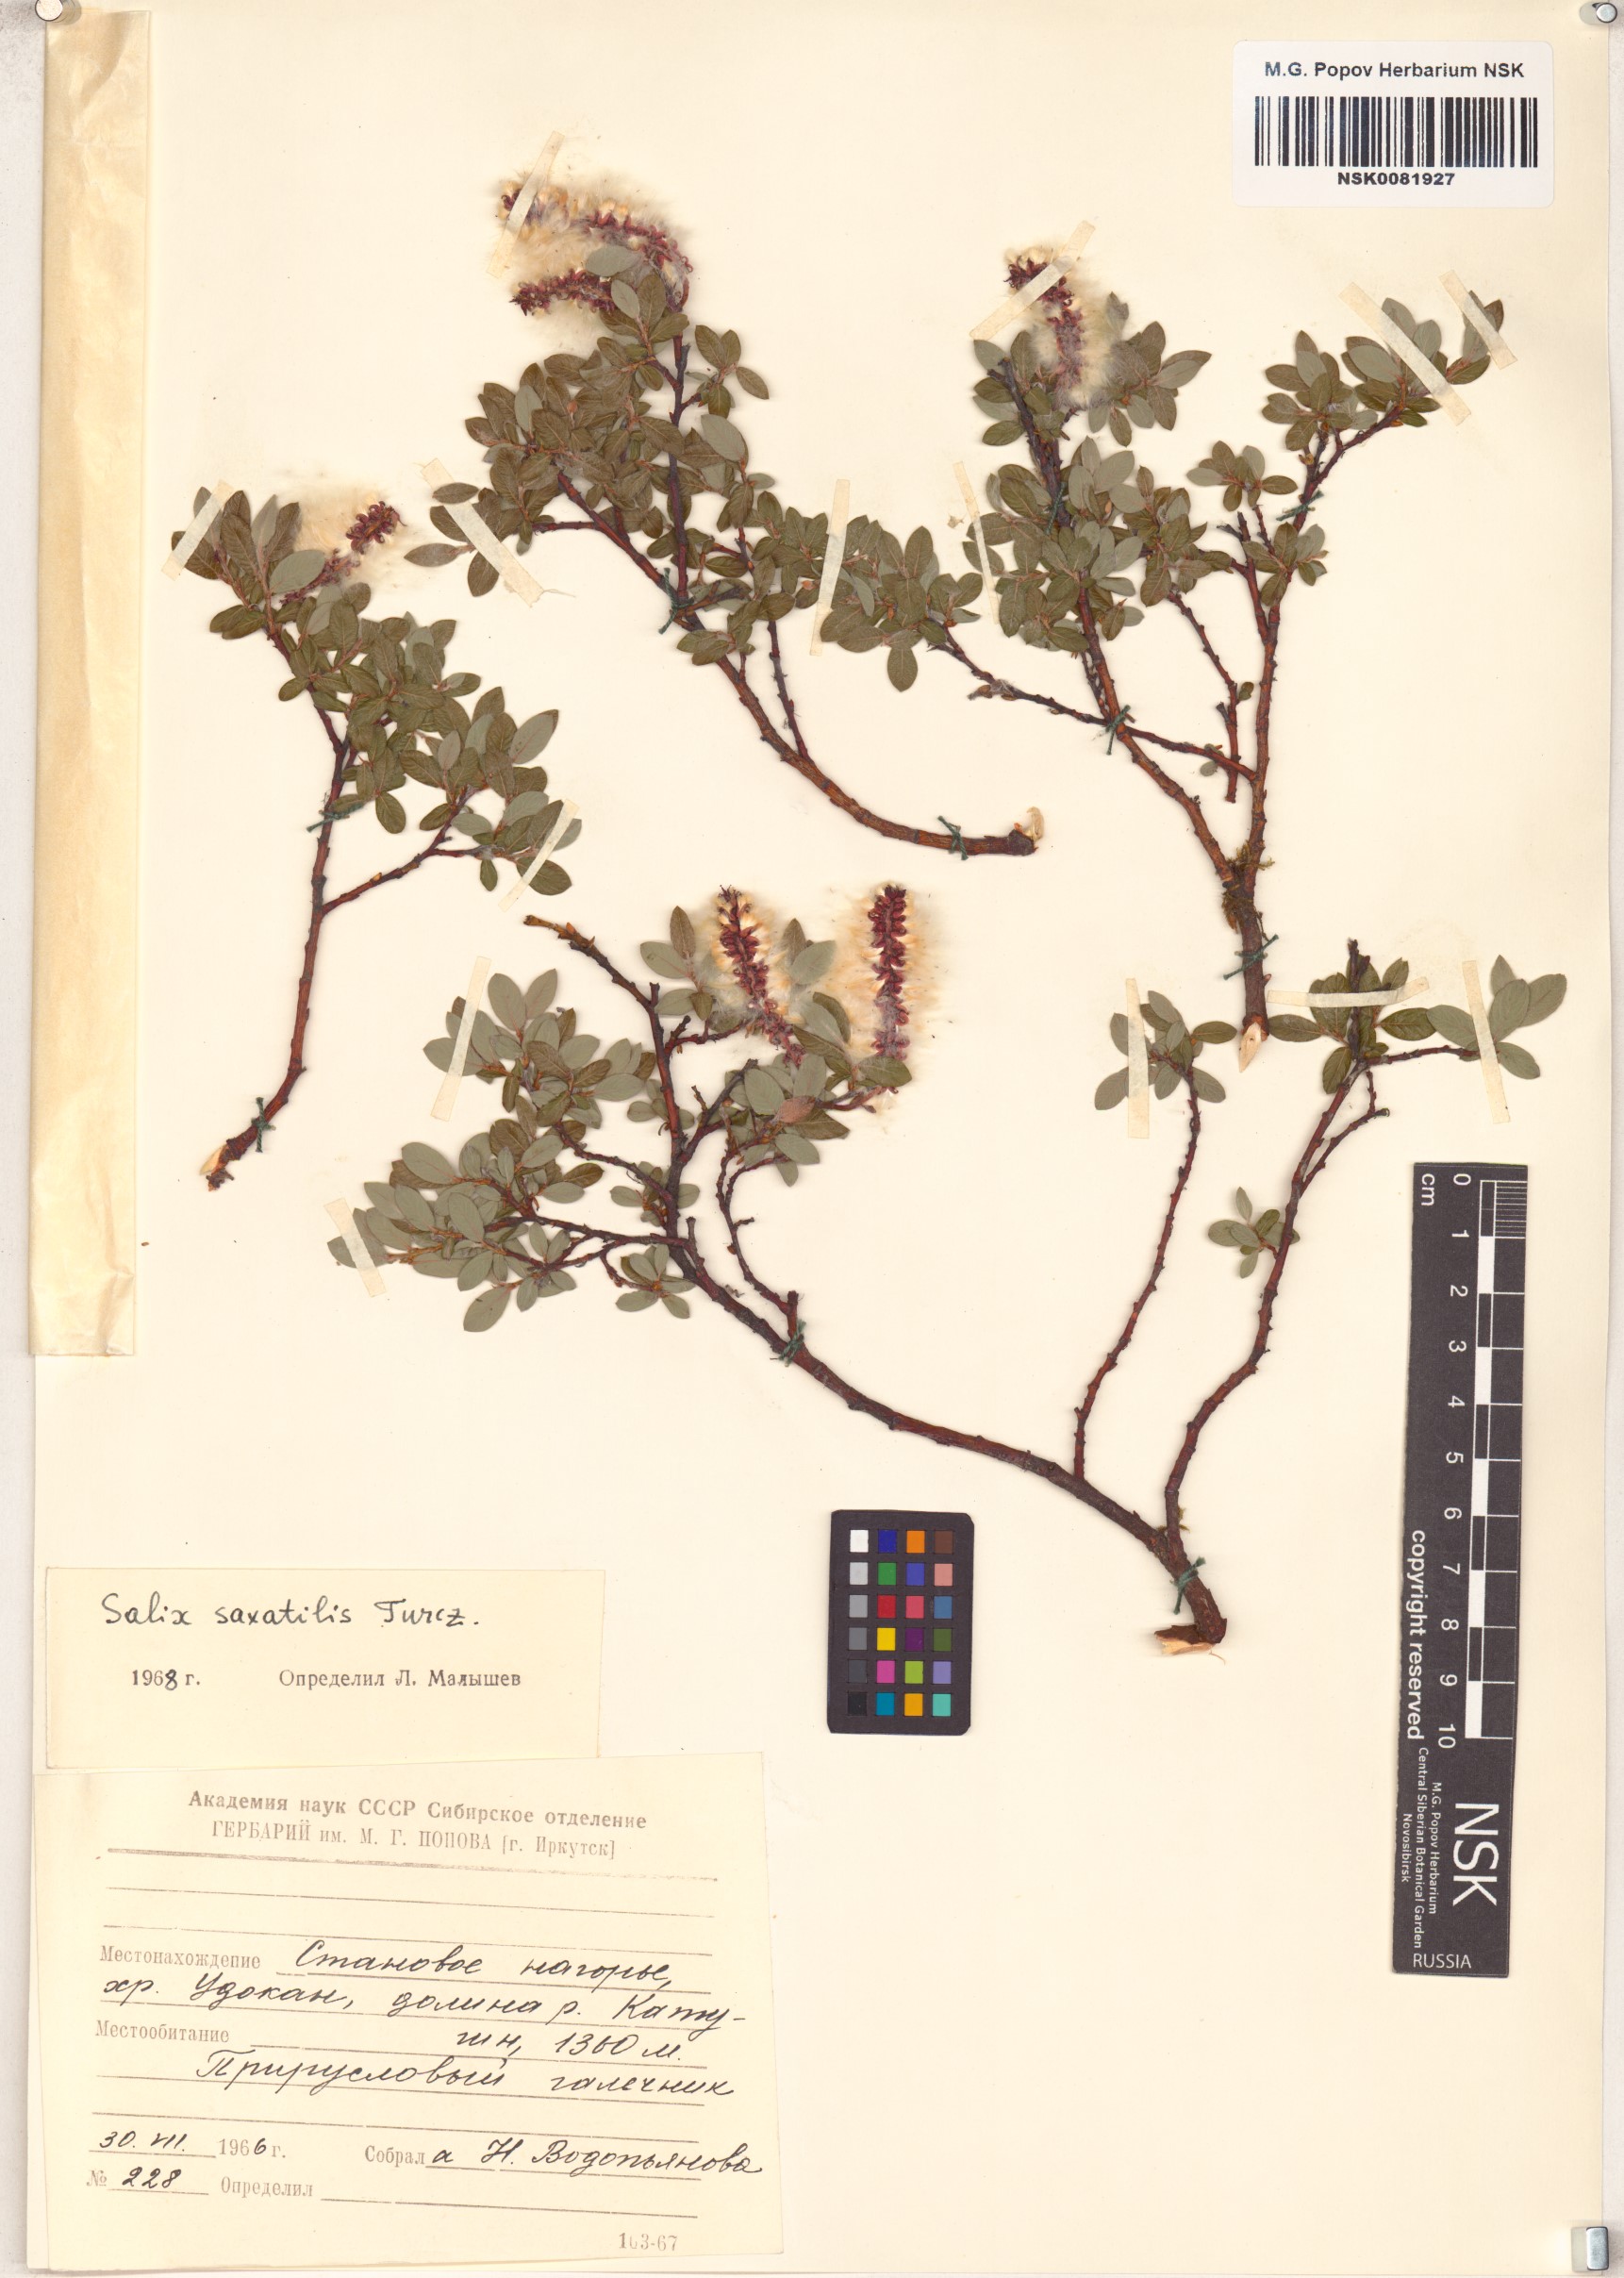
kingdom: Plantae
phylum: Tracheophyta
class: Magnoliopsida
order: Malpighiales
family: Salicaceae
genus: Salix
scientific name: Salix saxatilis
